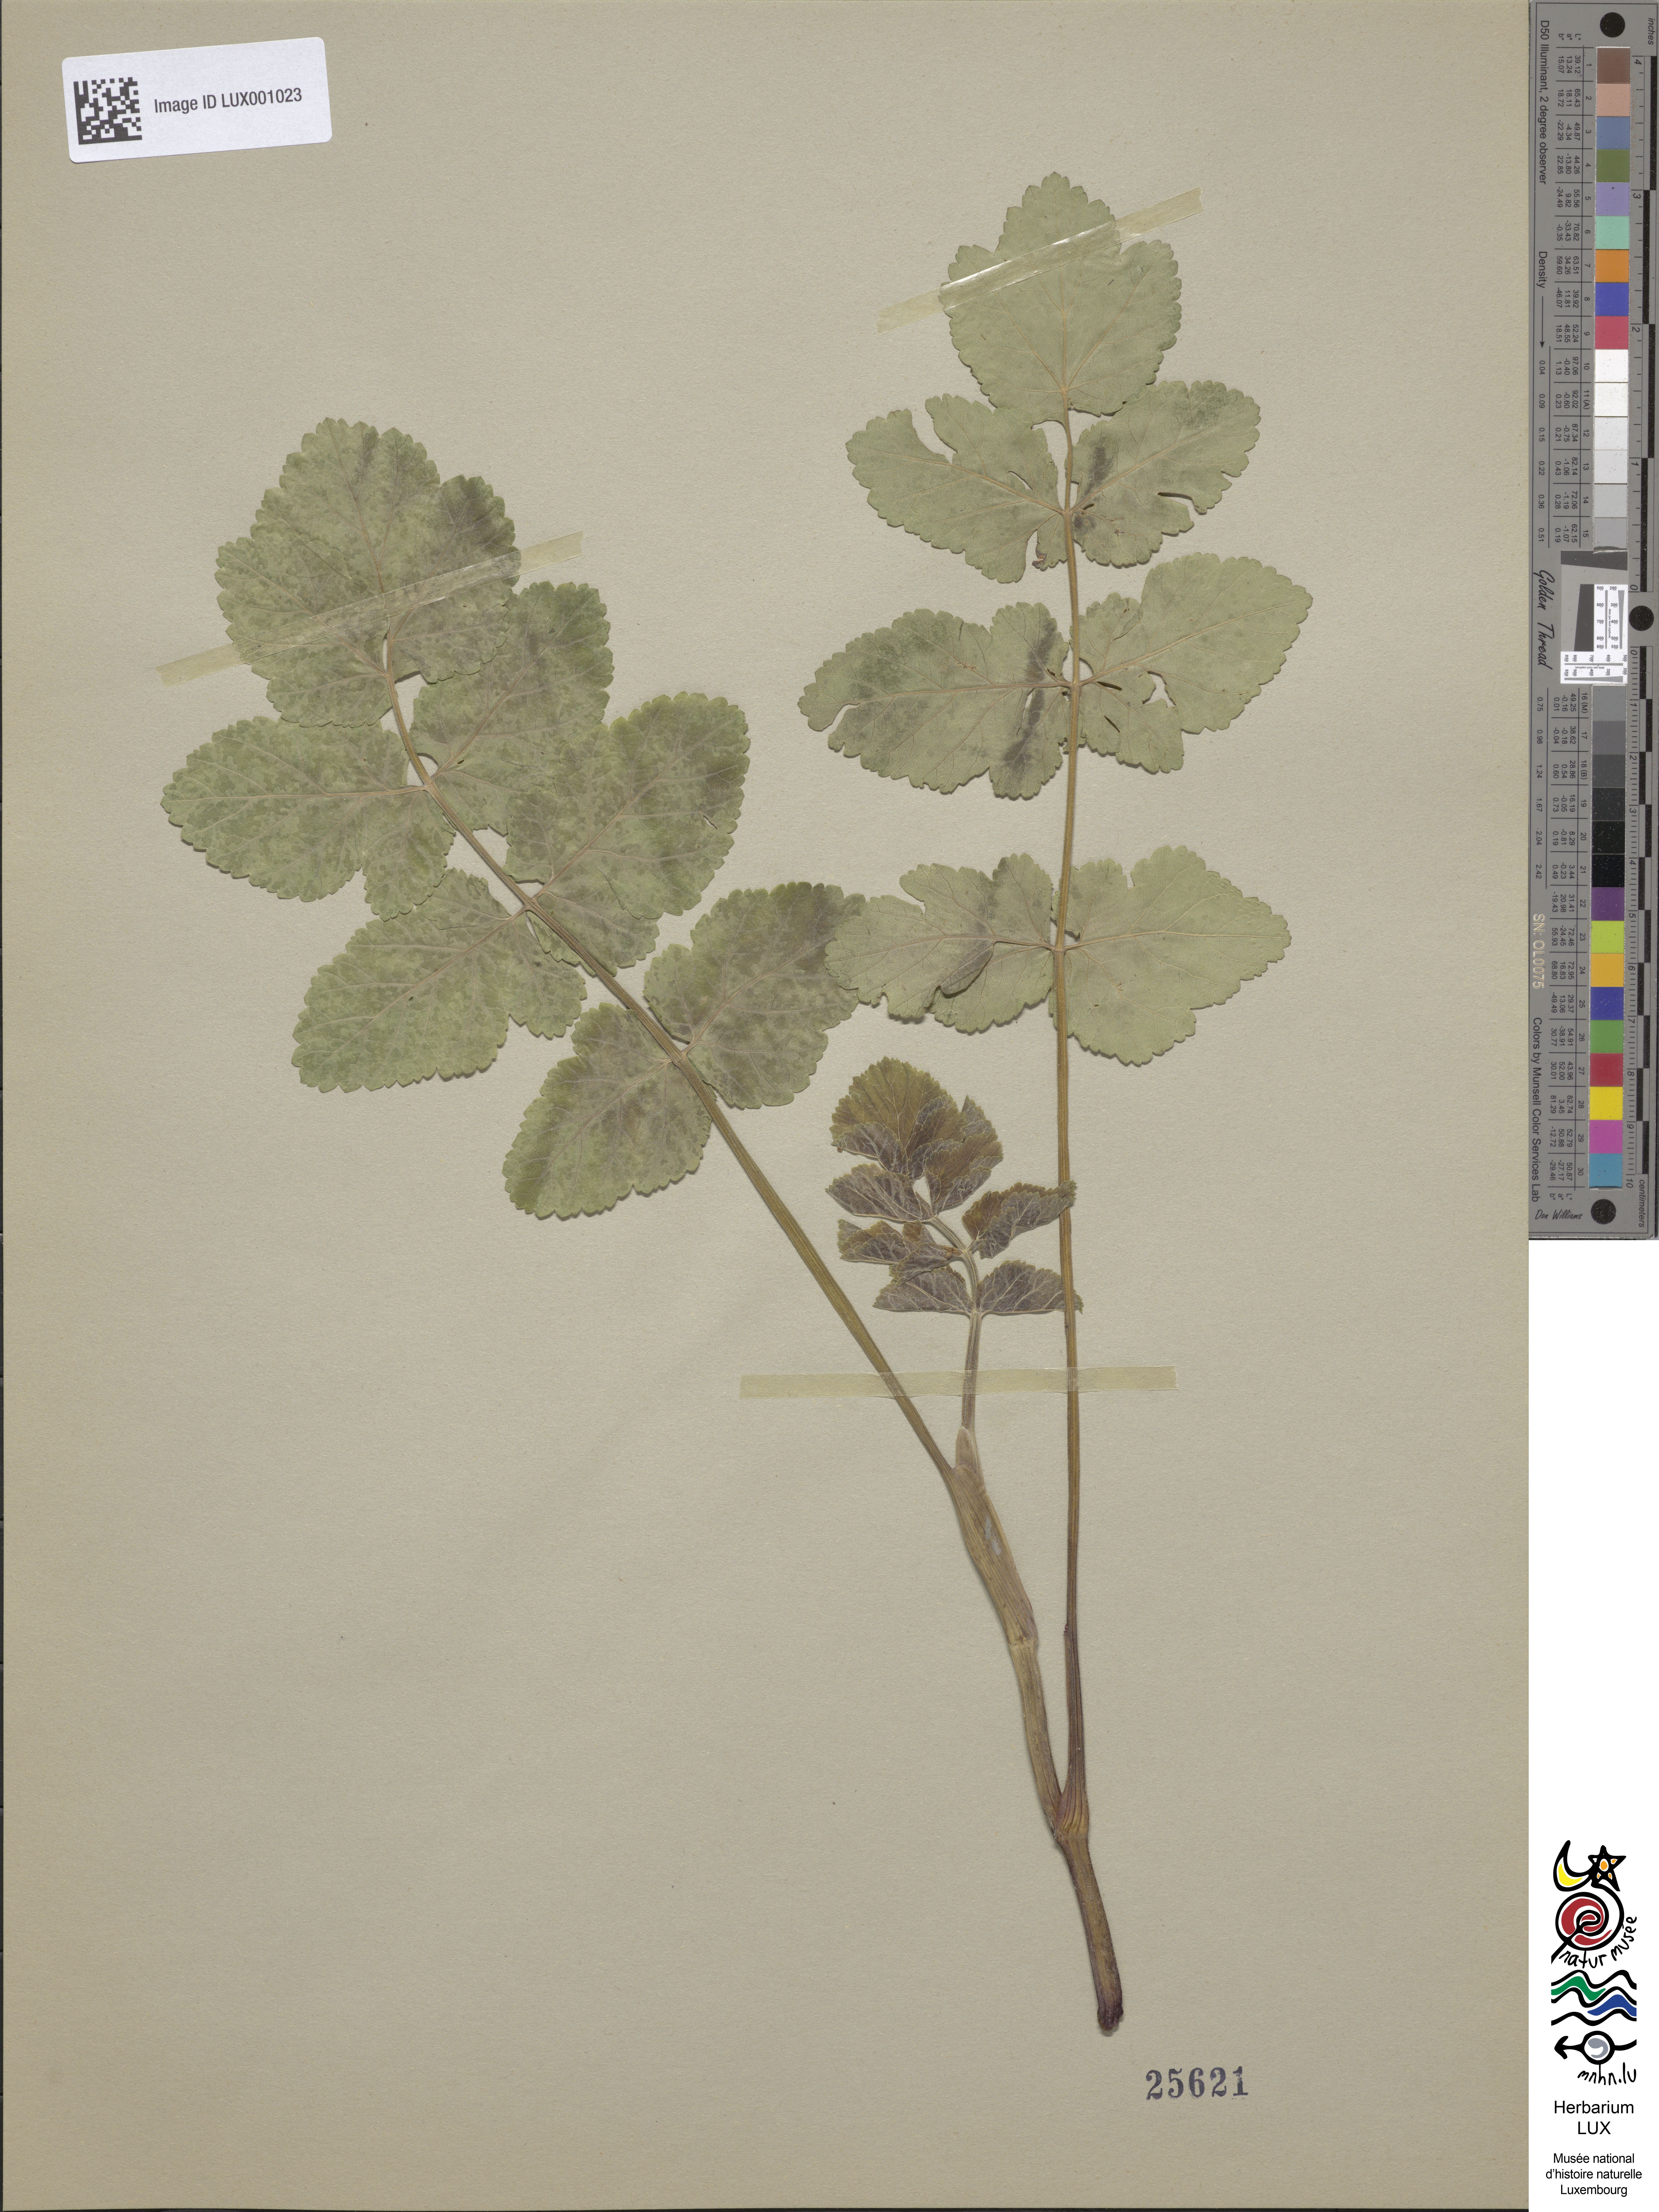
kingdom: Plantae
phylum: Tracheophyta
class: Magnoliopsida
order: Apiales
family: Apiaceae
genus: Pastinaca
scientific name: Pastinaca sativa
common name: Wild parsnip
